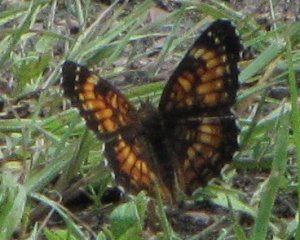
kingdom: Animalia
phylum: Arthropoda
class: Insecta
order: Lepidoptera
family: Nymphalidae
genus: Chlosyne
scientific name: Chlosyne harrisii
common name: Harris's Checkerspot
